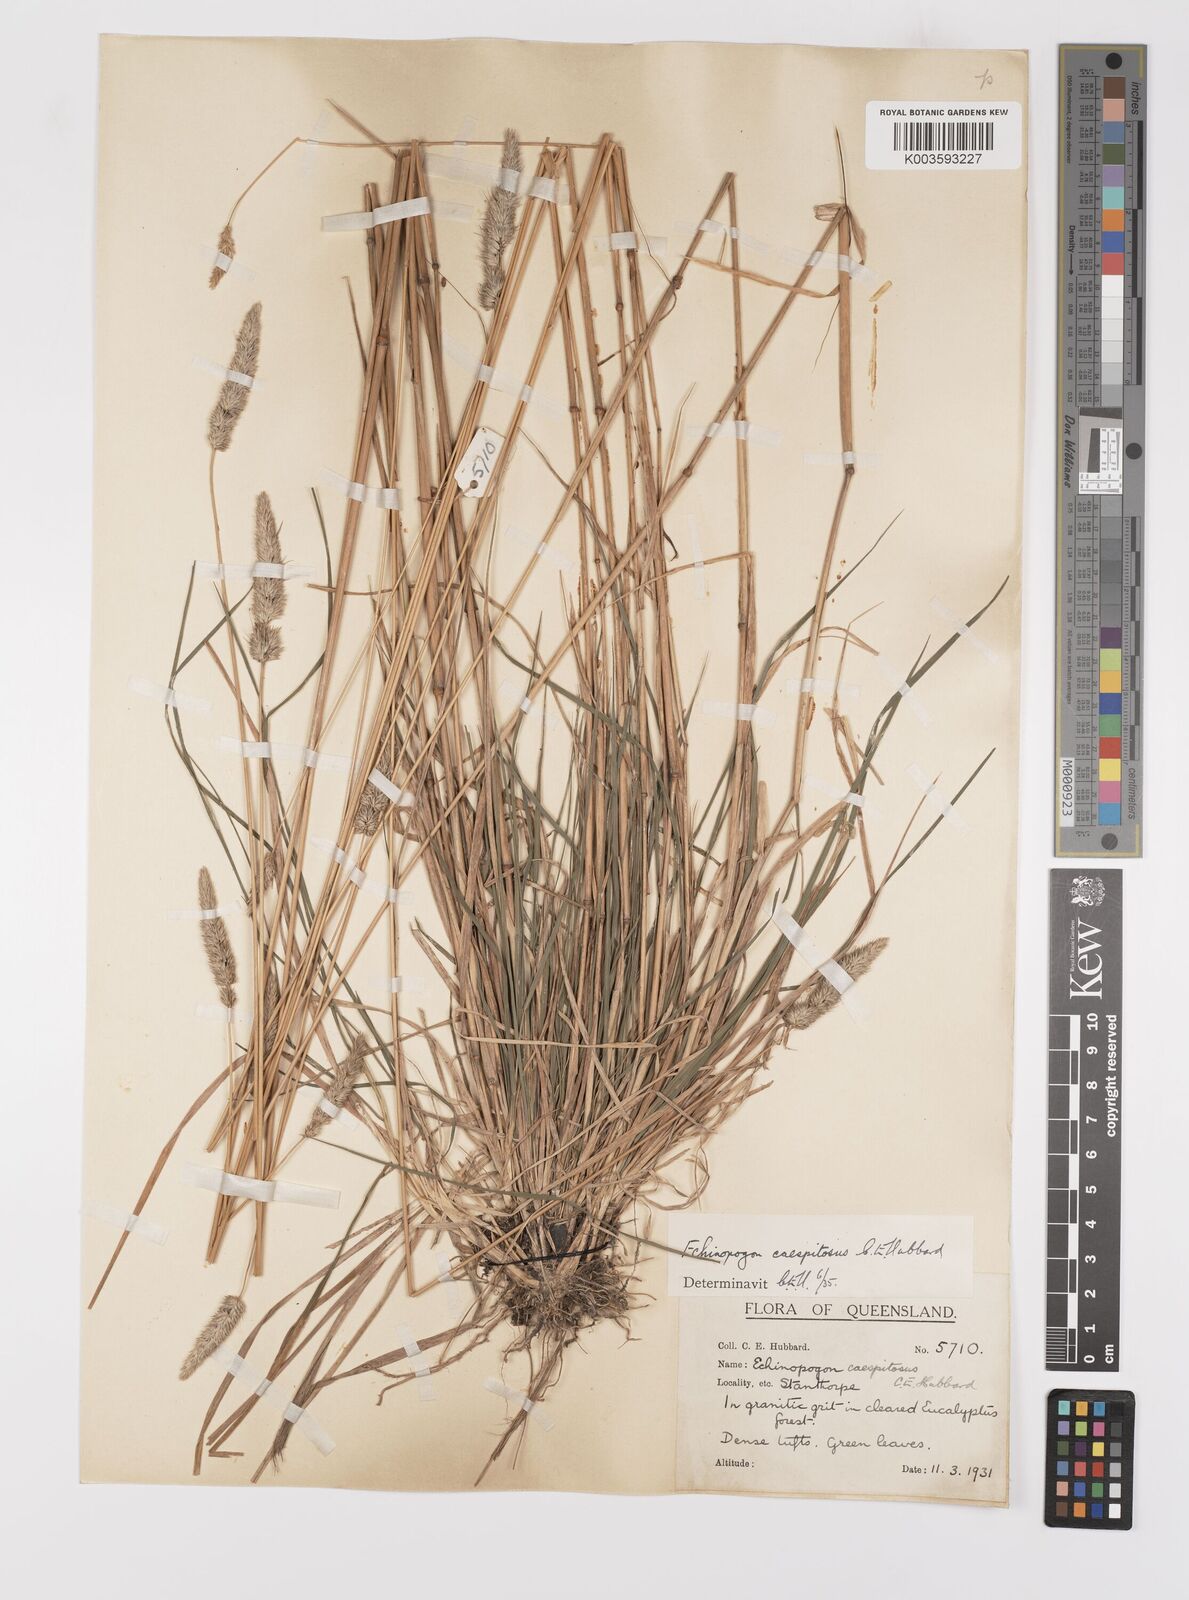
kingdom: Plantae
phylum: Tracheophyta
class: Liliopsida
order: Poales
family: Poaceae
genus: Echinopogon
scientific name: Echinopogon caespitosus
